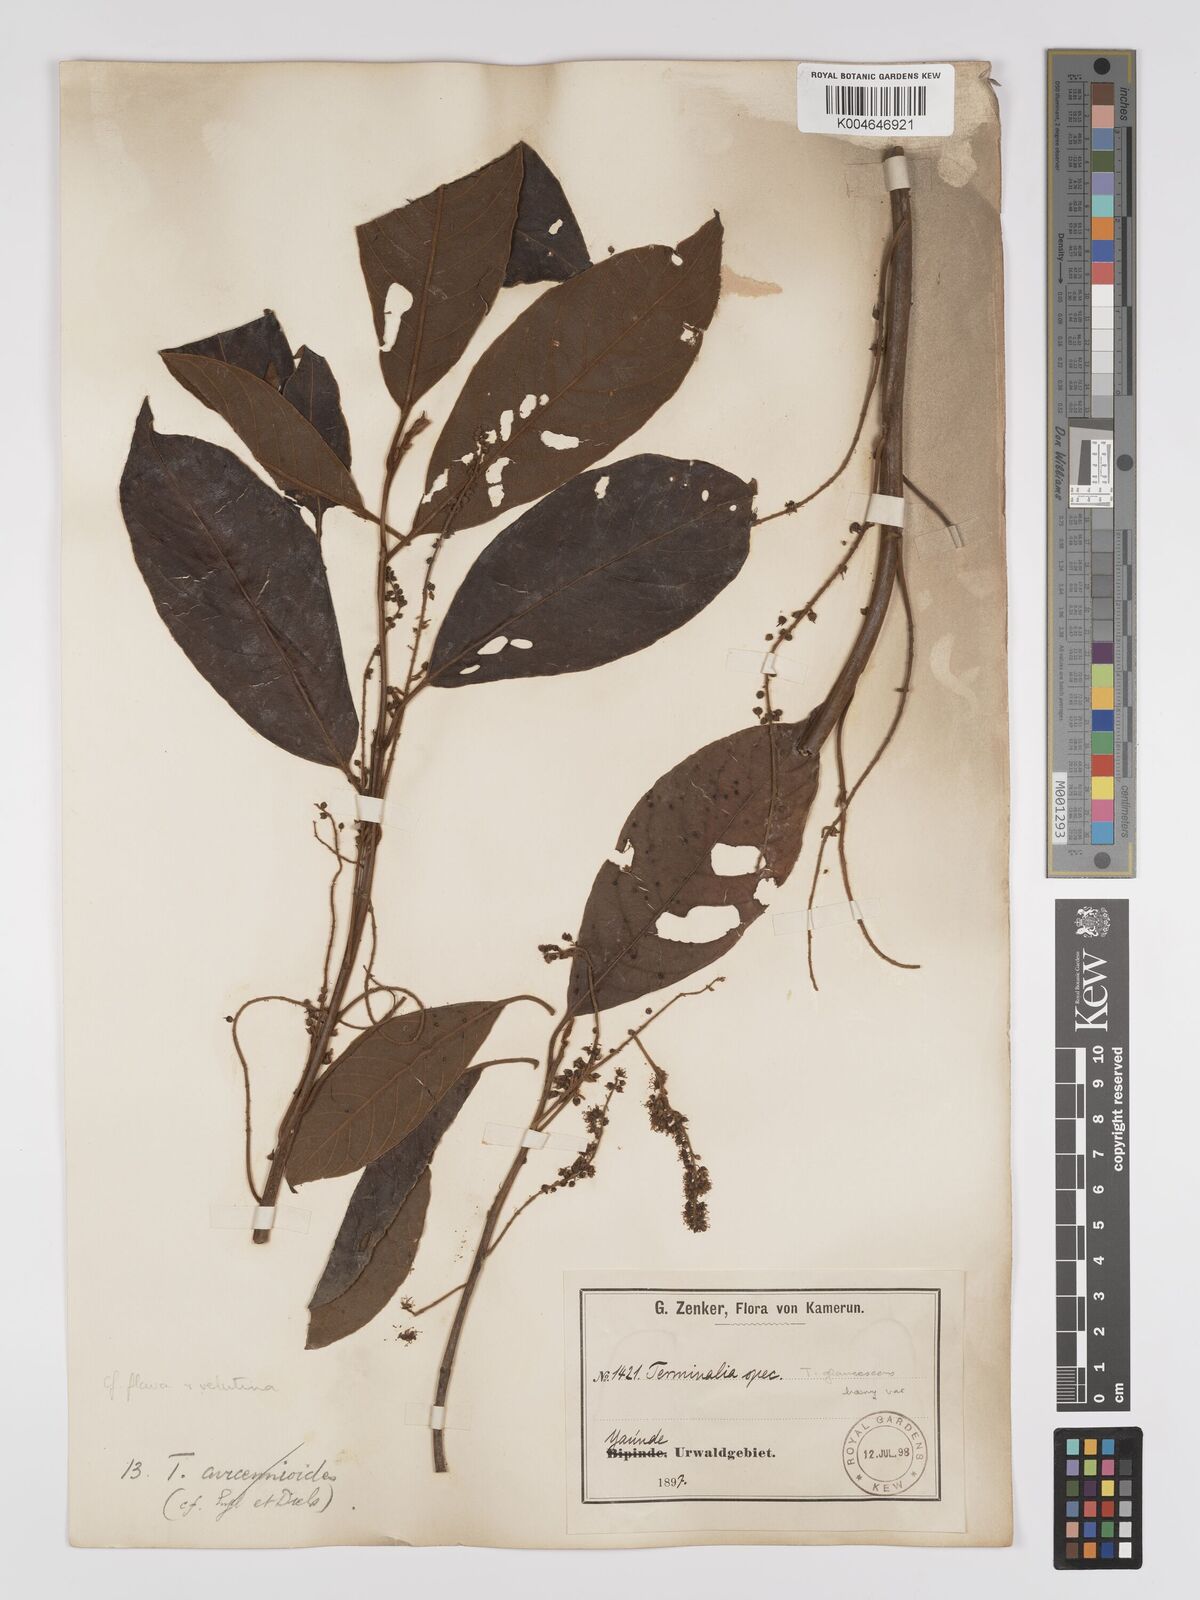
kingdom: Plantae
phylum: Tracheophyta
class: Magnoliopsida
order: Myrtales
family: Combretaceae
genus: Terminalia
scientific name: Terminalia avicennioides
